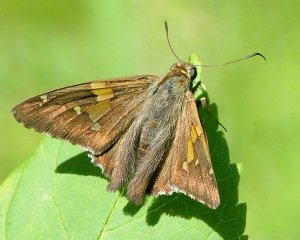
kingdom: Animalia
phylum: Arthropoda
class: Insecta
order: Lepidoptera
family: Hesperiidae
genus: Epargyreus
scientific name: Epargyreus clarus
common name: Silver-spotted Skipper
